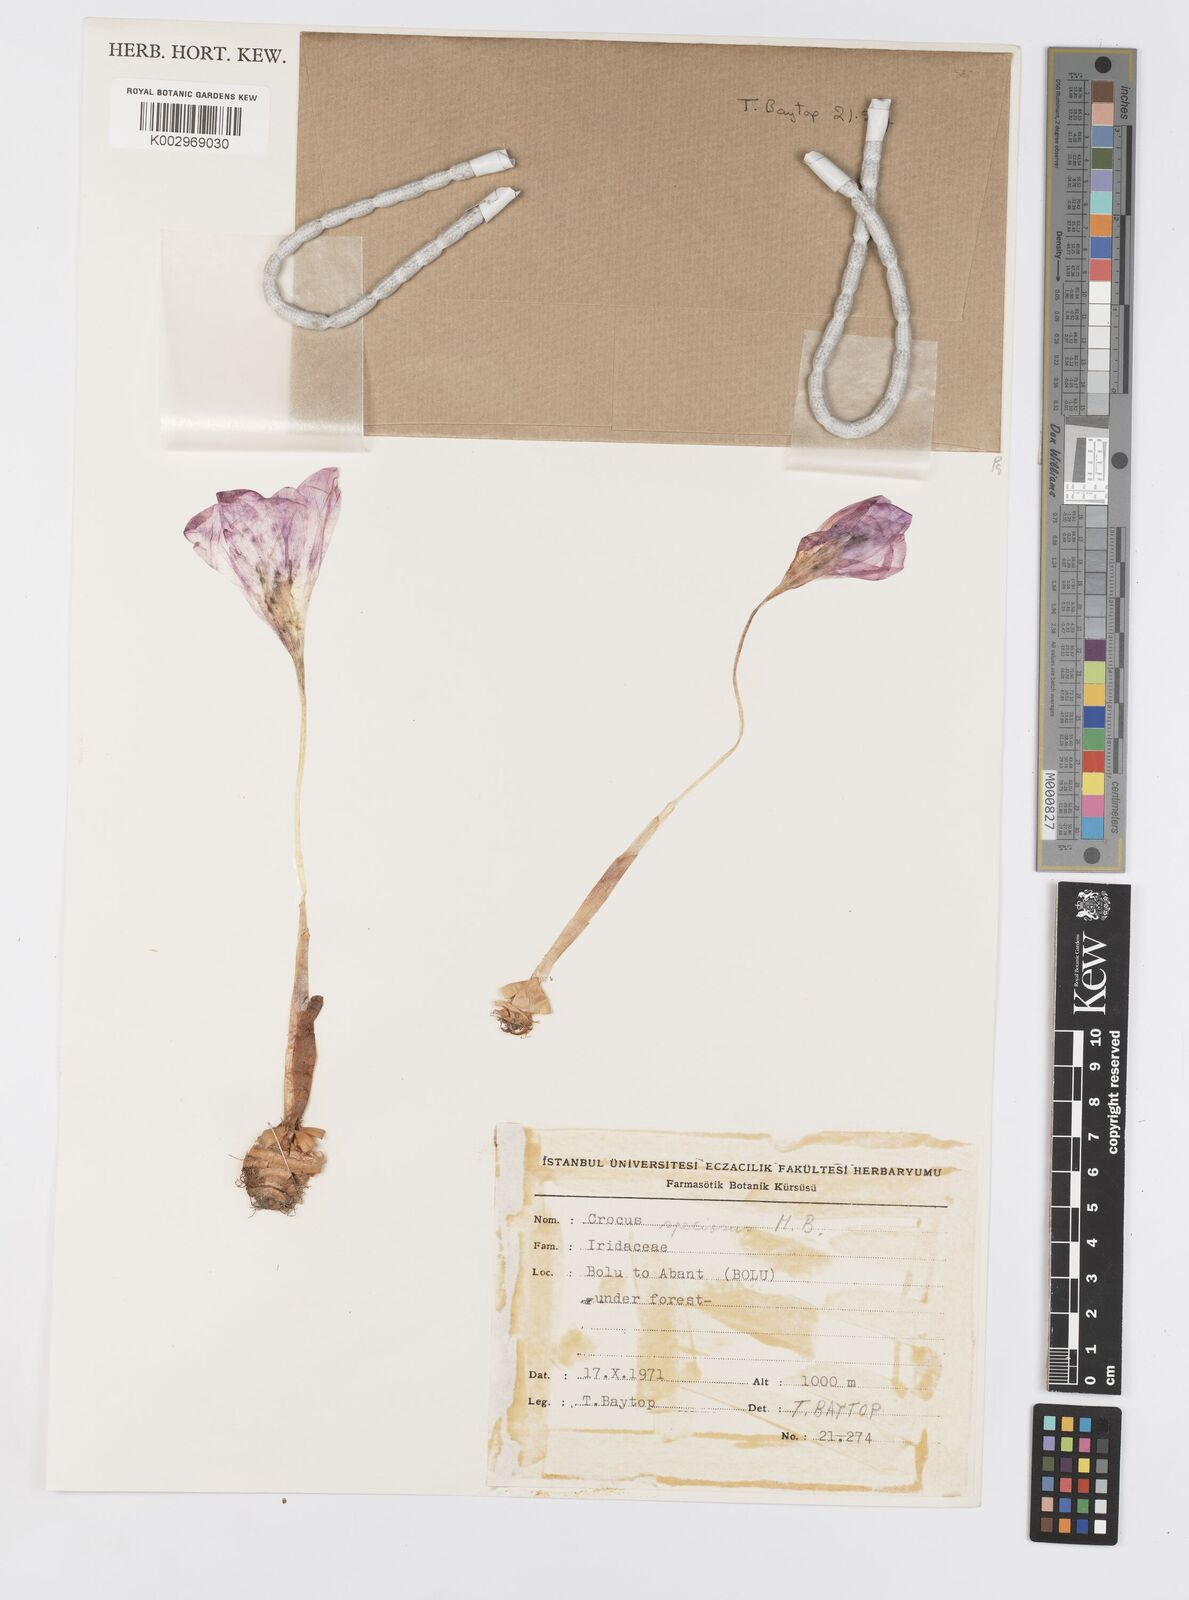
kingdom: Plantae
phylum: Tracheophyta
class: Liliopsida
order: Asparagales
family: Iridaceae
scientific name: Iridaceae
